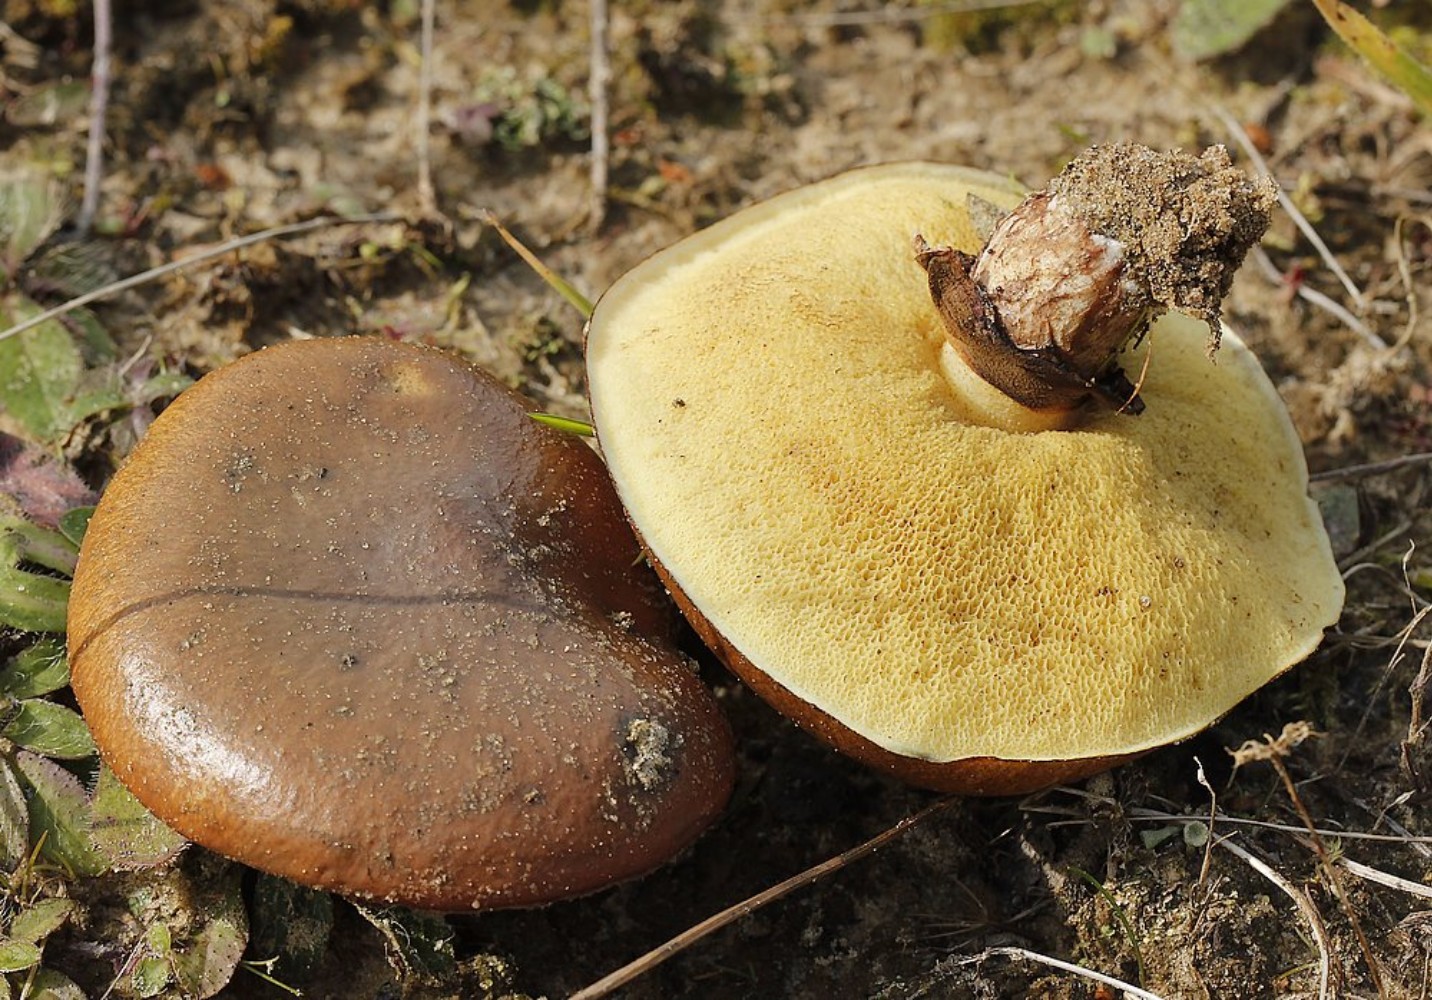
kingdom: Fungi
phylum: Basidiomycota
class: Agaricomycetes
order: Boletales
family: Suillaceae
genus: Suillus
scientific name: Suillus luteus
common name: brungul slimrørhat
